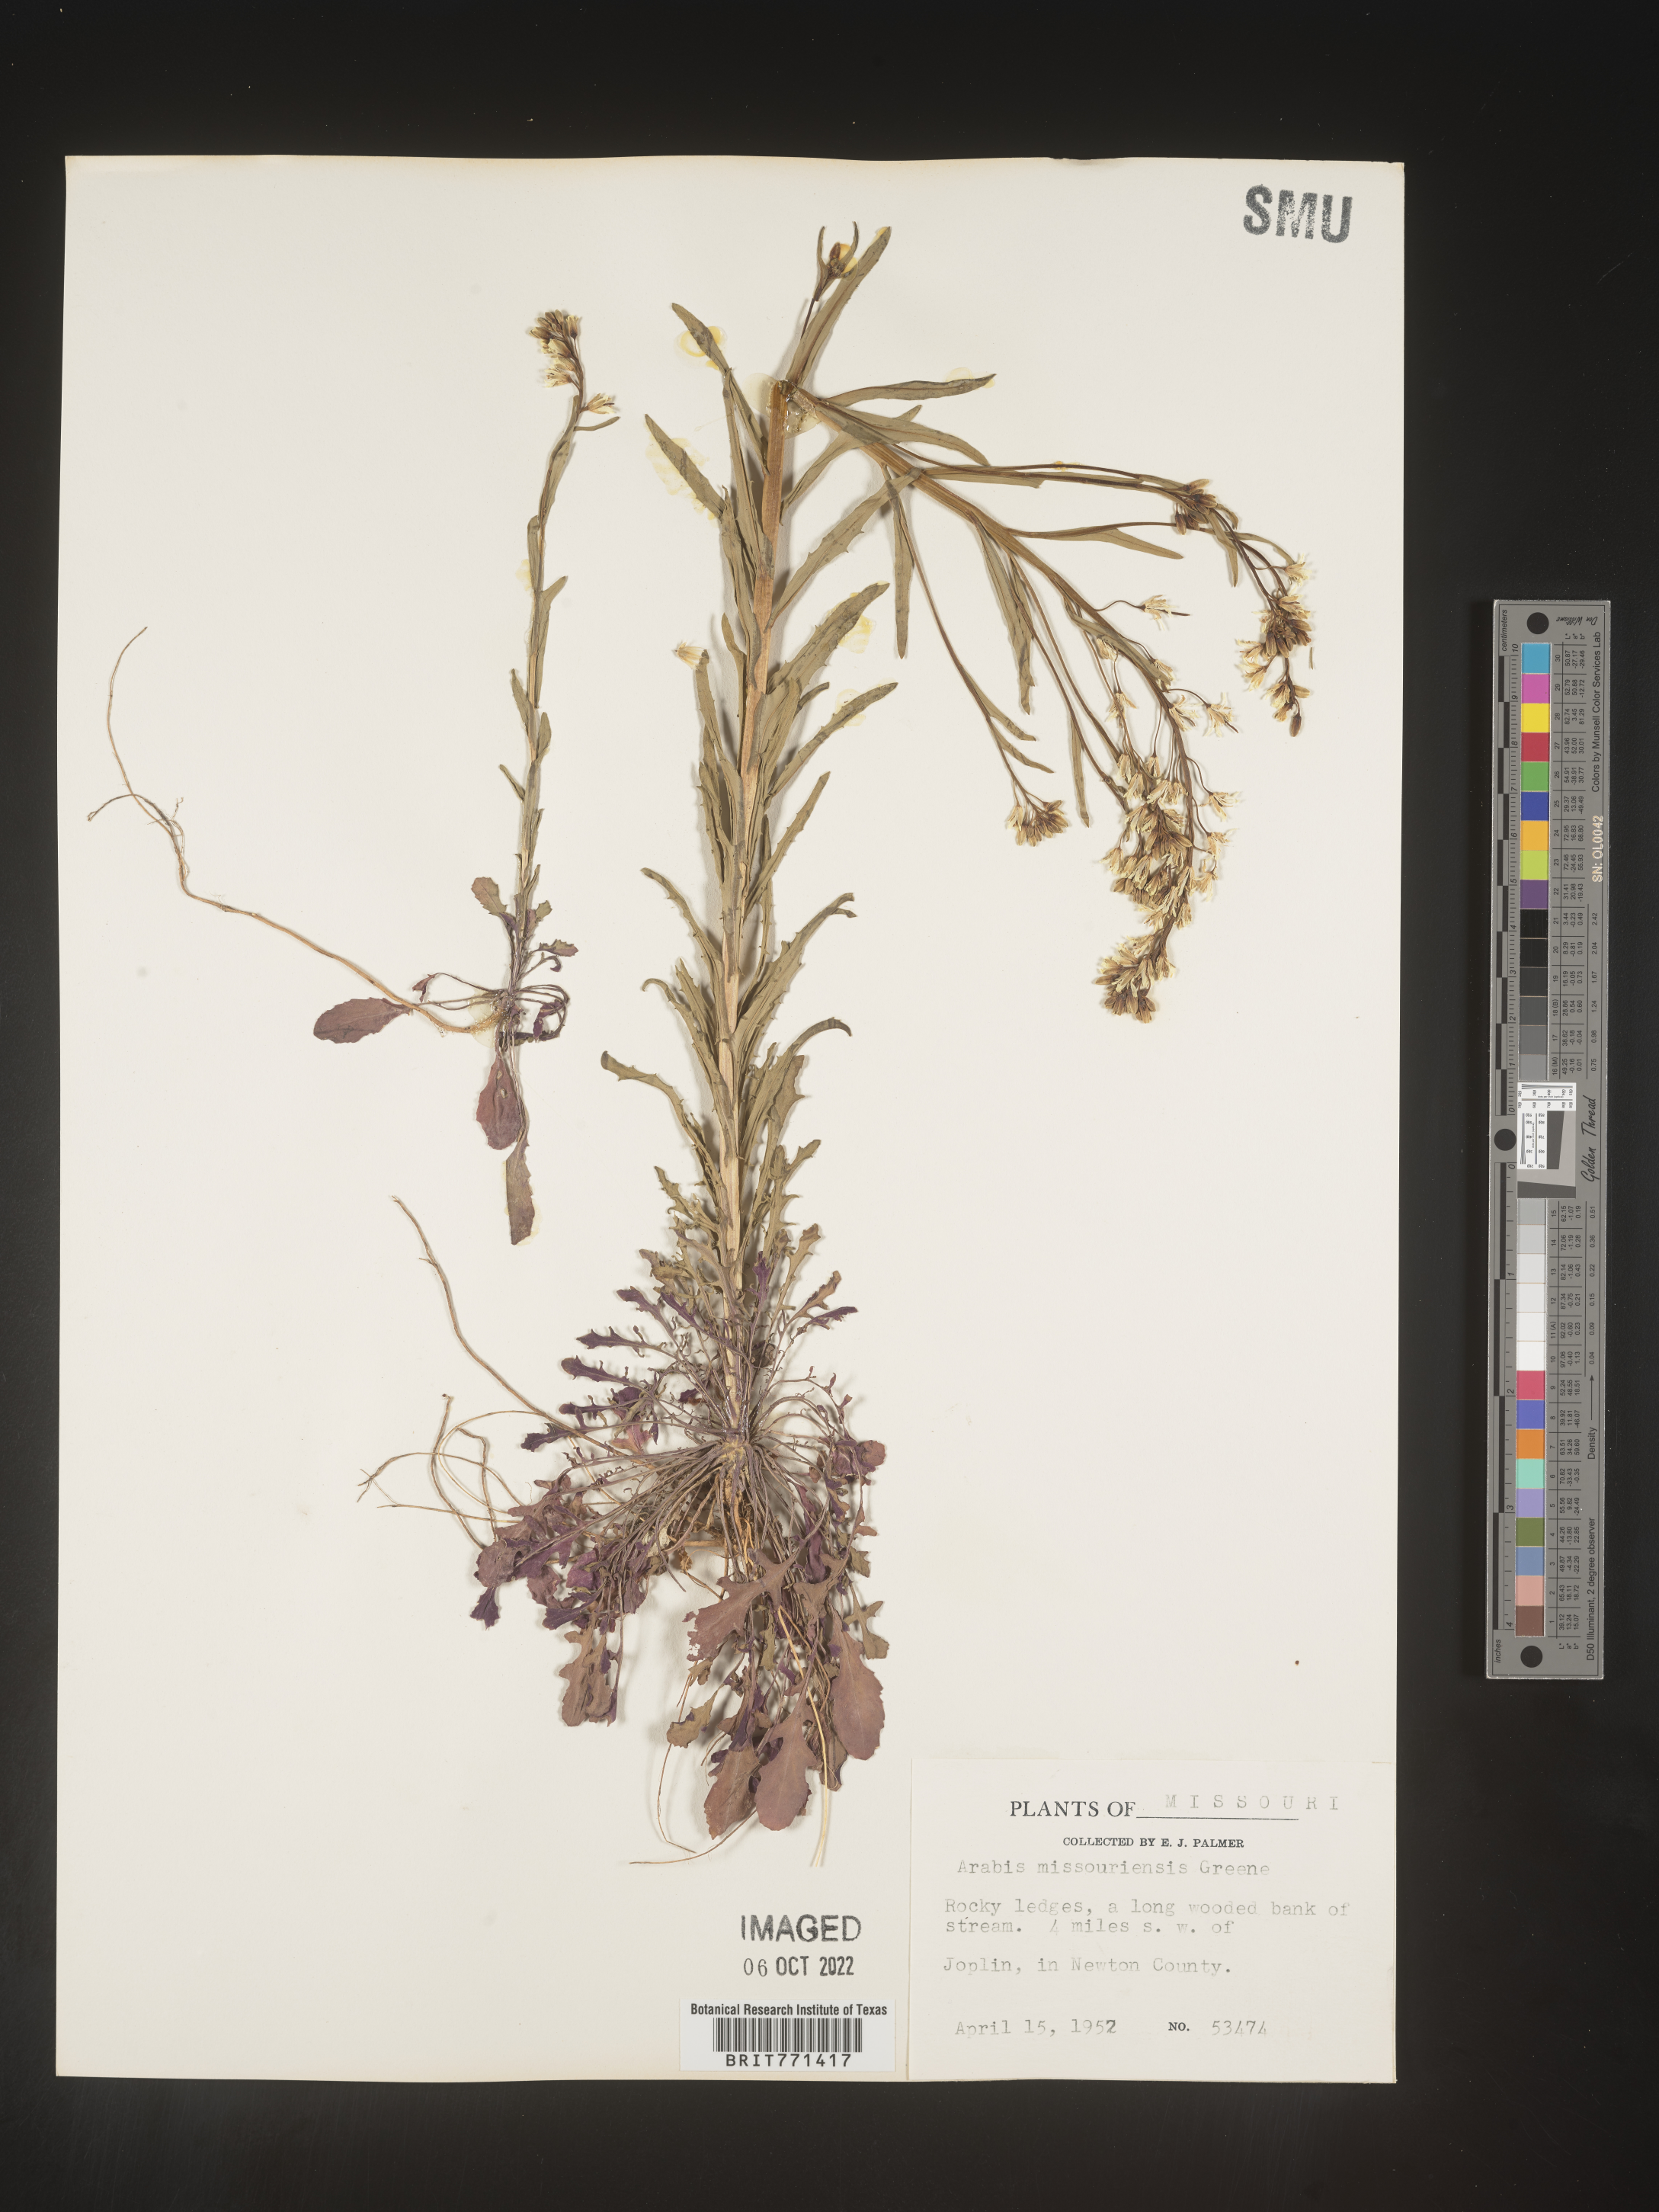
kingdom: Plantae
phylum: Tracheophyta
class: Magnoliopsida
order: Brassicales
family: Brassicaceae
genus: Arabis
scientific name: Arabis
